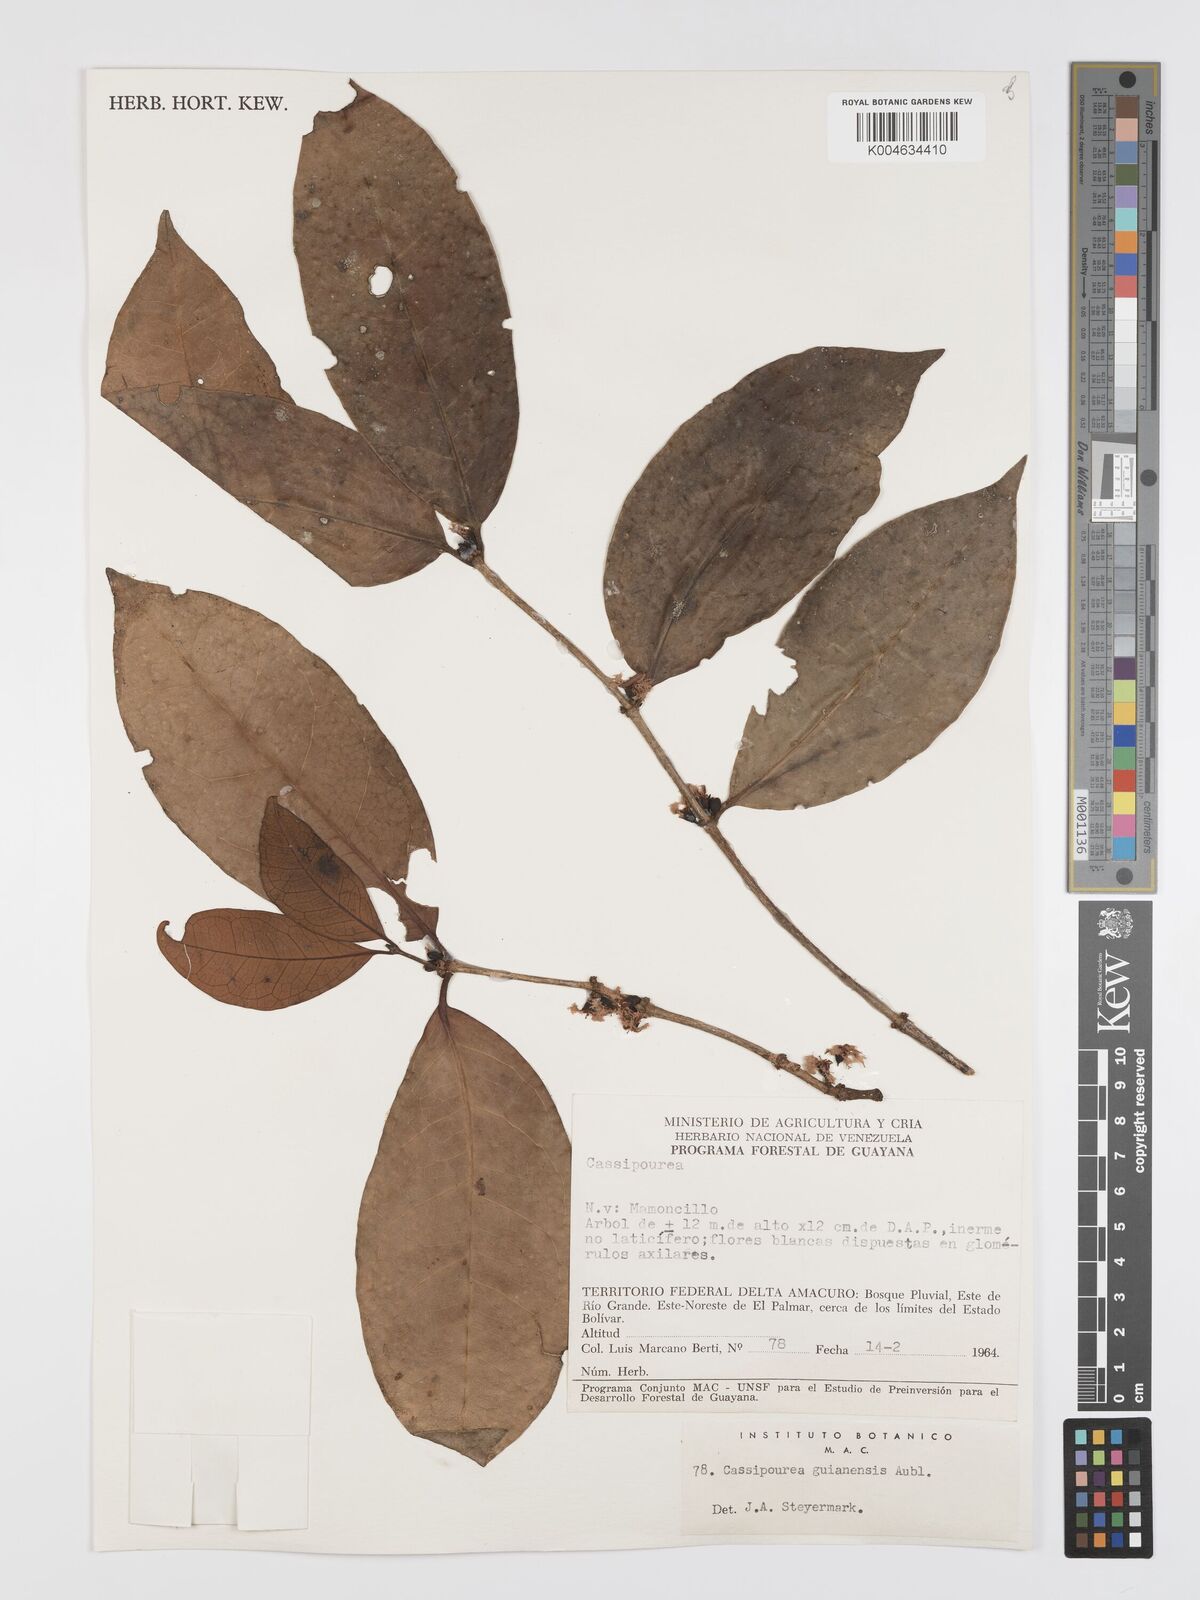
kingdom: Plantae
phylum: Tracheophyta
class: Magnoliopsida
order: Malpighiales
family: Rhizophoraceae
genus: Cassipourea
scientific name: Cassipourea guianensis
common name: Bastard waterwood
